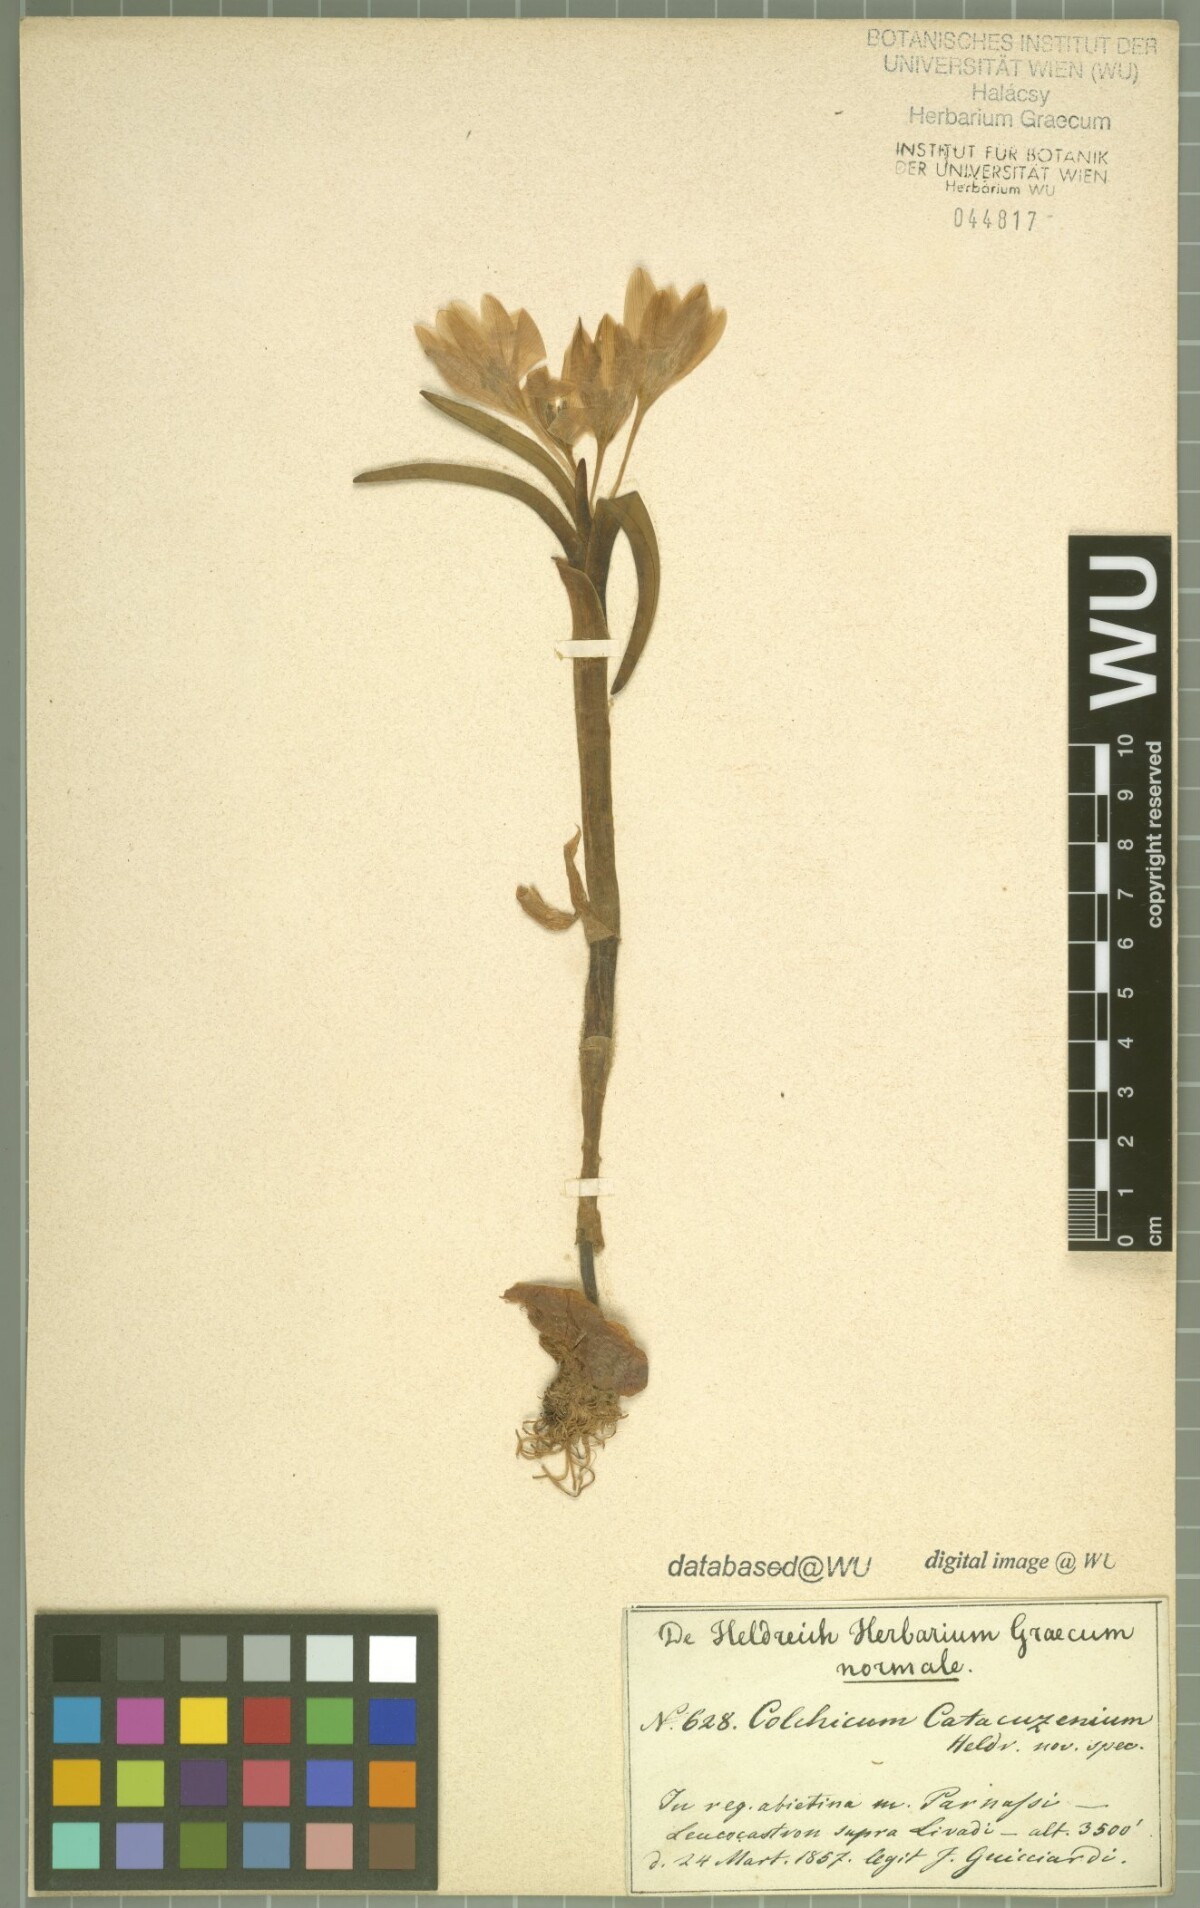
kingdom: Plantae
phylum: Tracheophyta
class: Liliopsida
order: Liliales
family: Colchicaceae
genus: Colchicum
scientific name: Colchicum triphyllum
